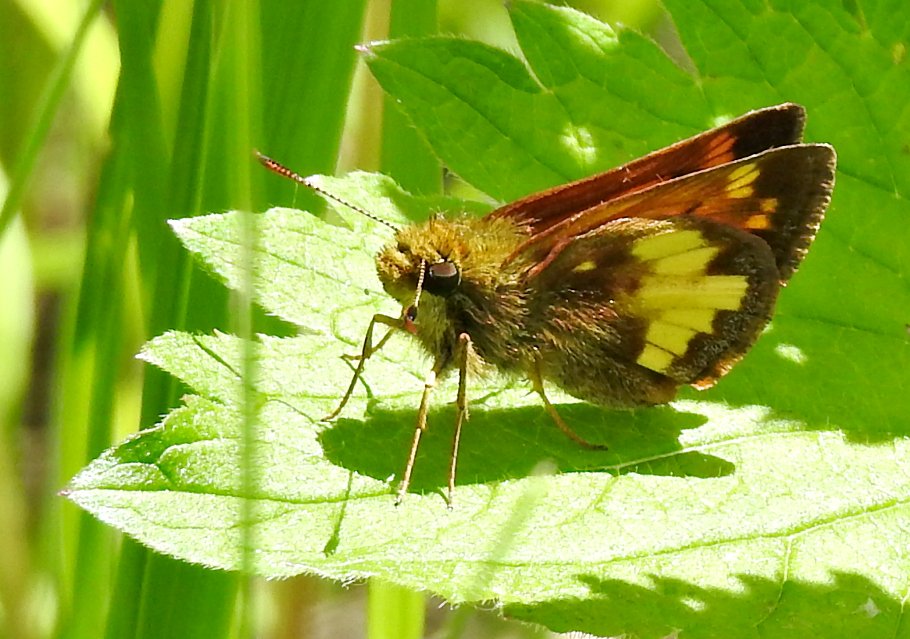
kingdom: Animalia
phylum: Arthropoda
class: Insecta
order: Lepidoptera
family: Hesperiidae
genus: Lon
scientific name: Lon hobomok
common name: Hobomok Skipper
